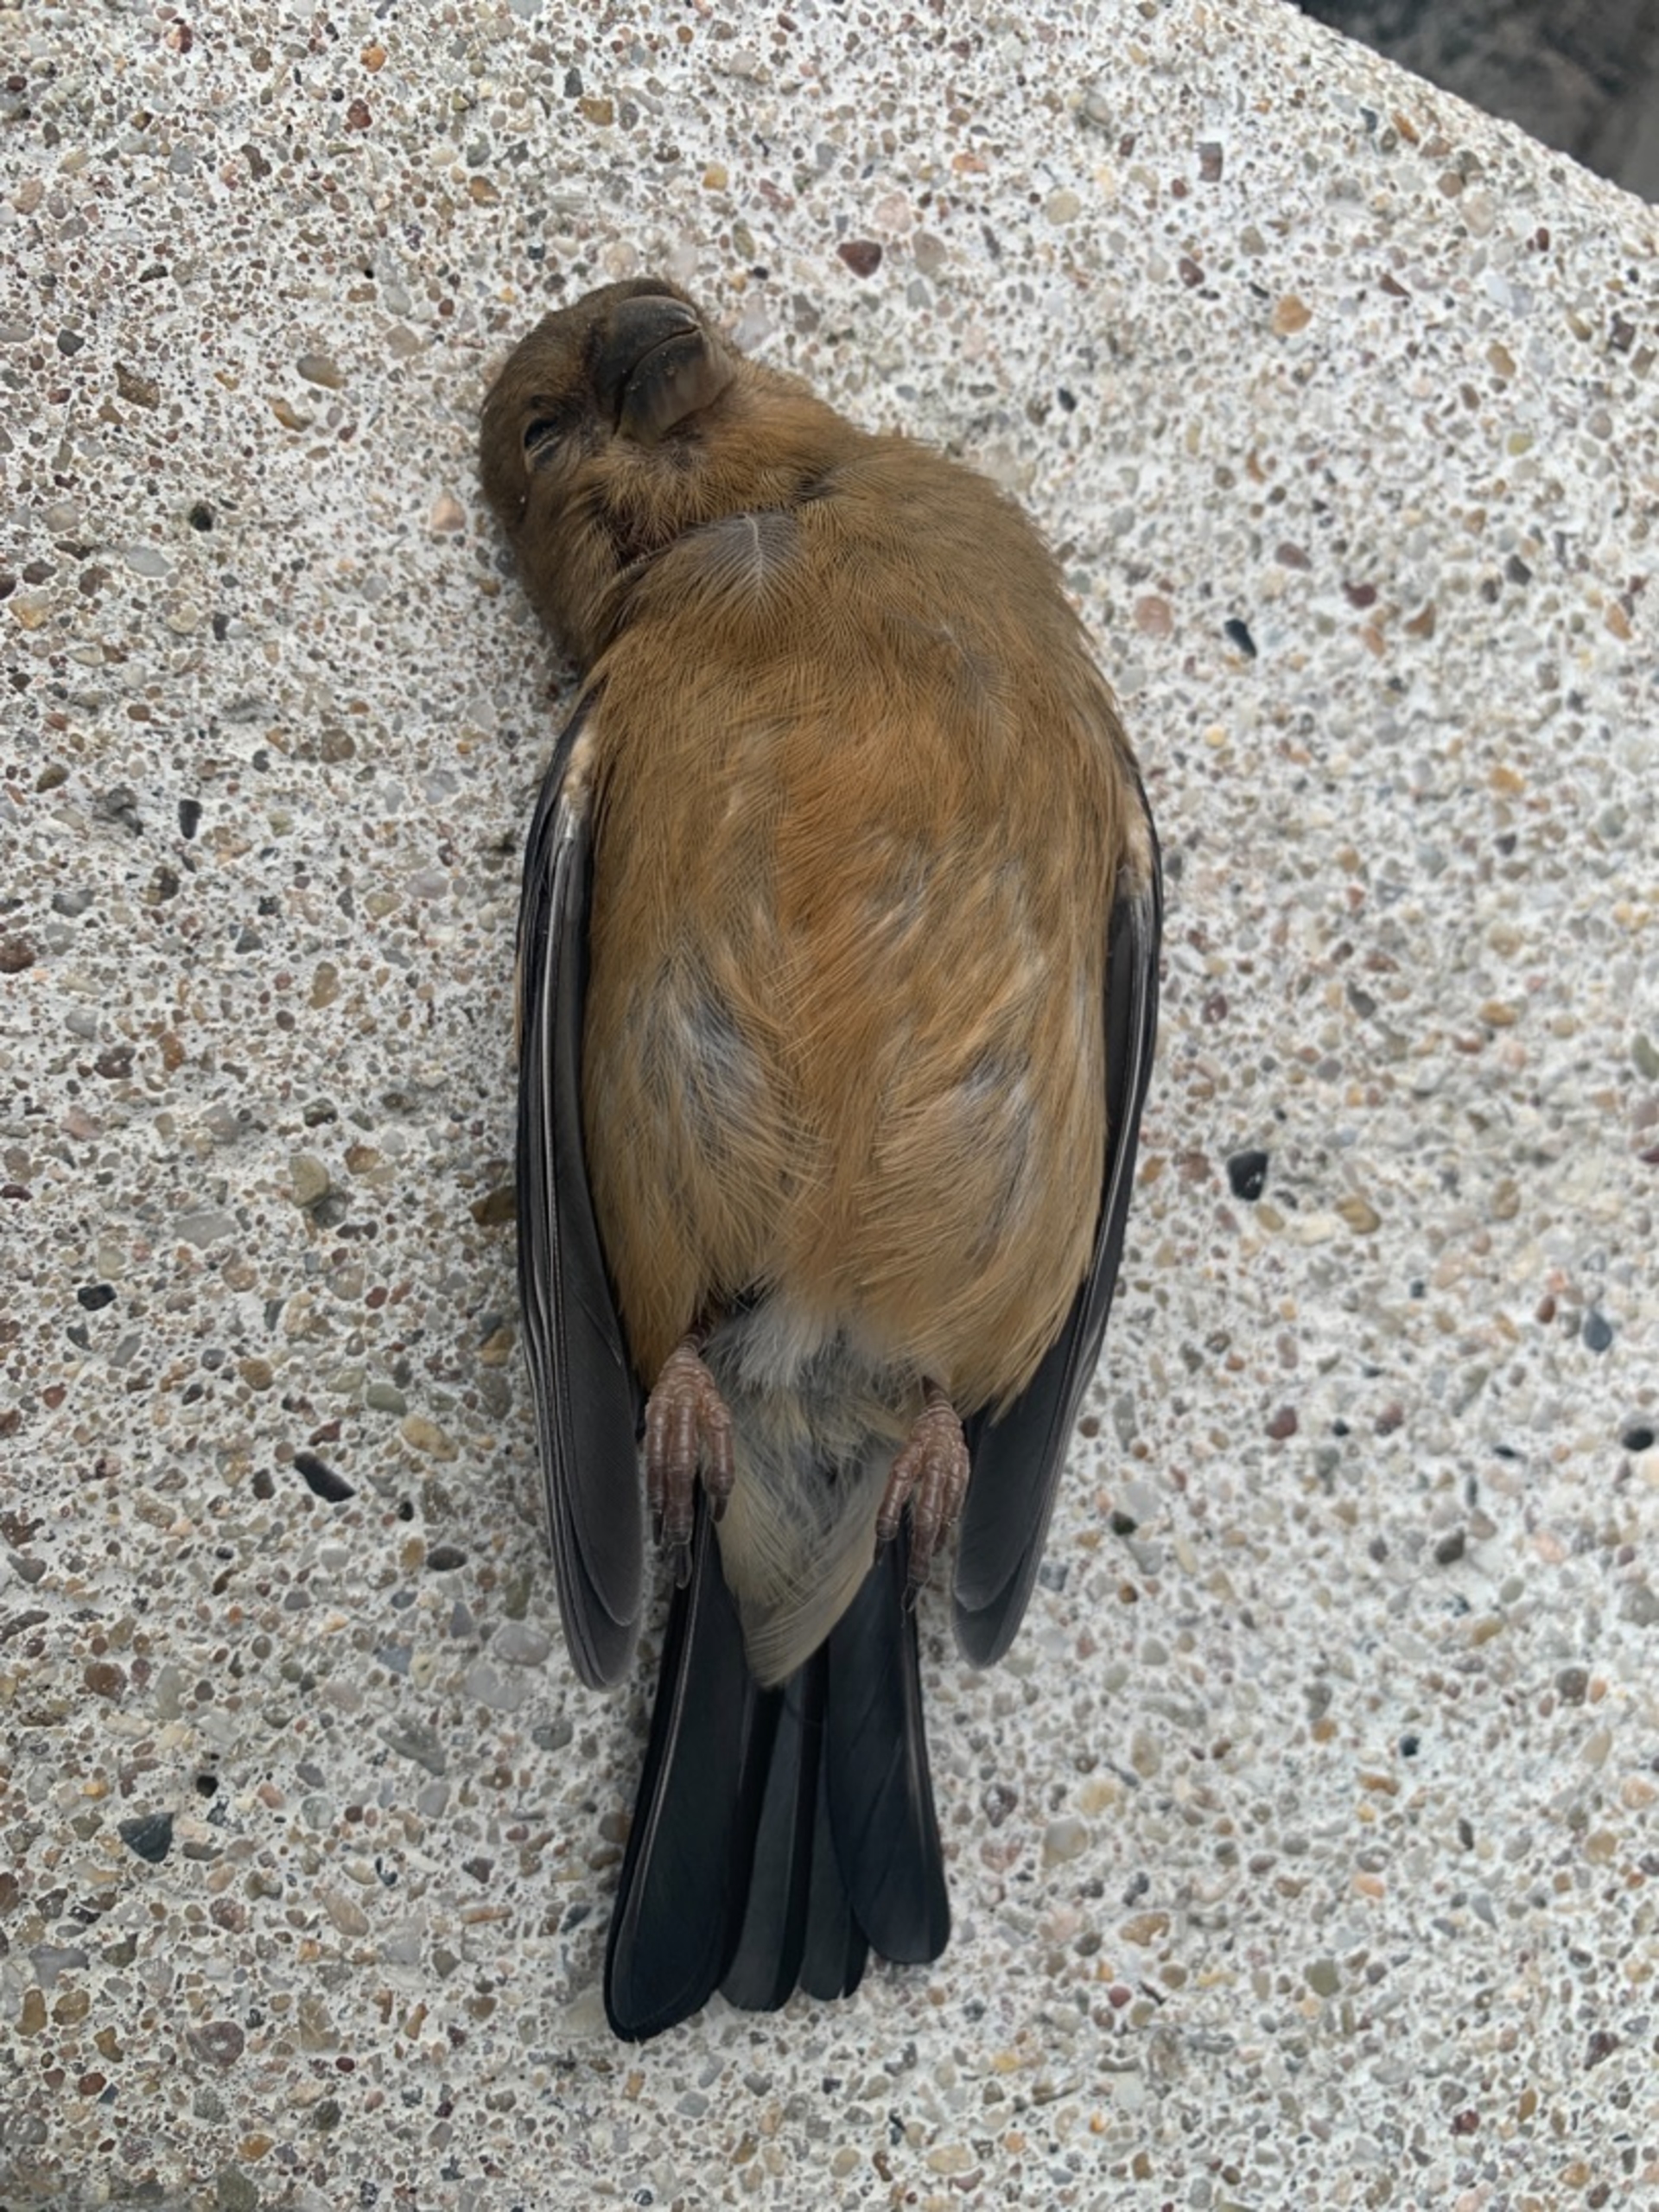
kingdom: Animalia
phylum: Chordata
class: Aves
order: Passeriformes
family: Fringillidae
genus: Pyrrhula
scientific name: Pyrrhula pyrrhula
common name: Dompap
